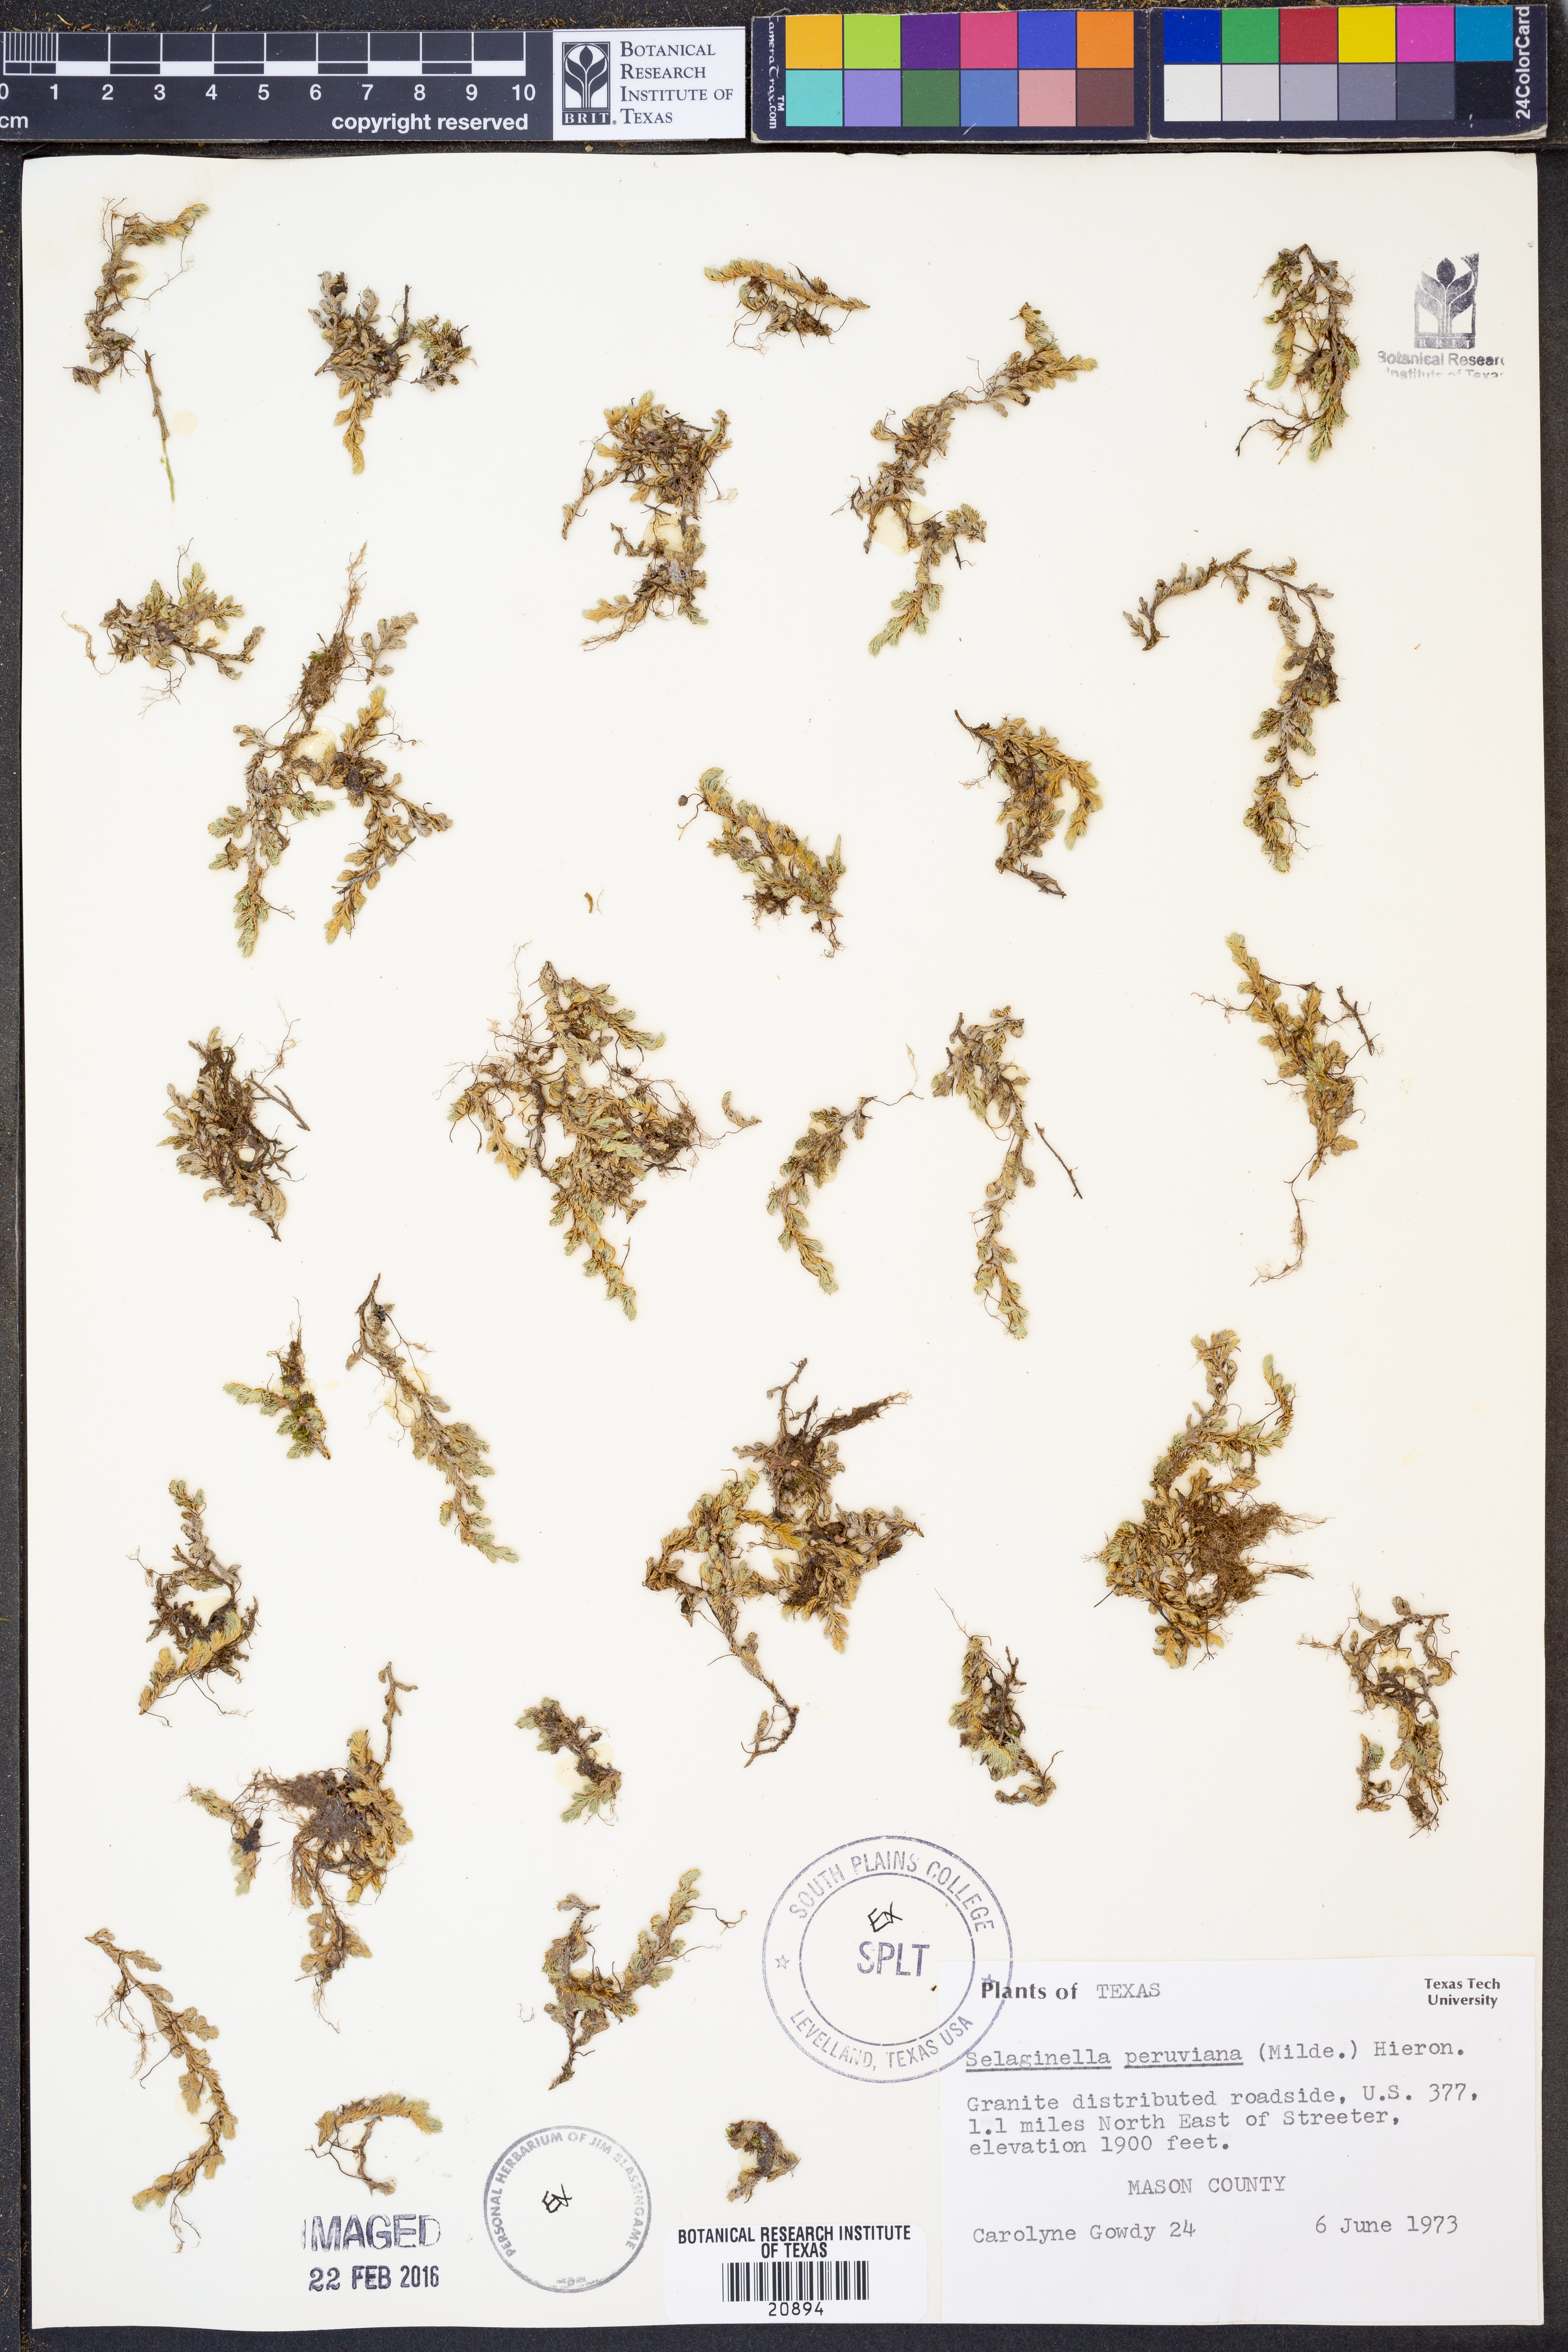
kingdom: Plantae
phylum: Tracheophyta
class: Lycopodiopsida
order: Selaginellales
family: Selaginellaceae
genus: Selaginella
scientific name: Selaginella peruviana
